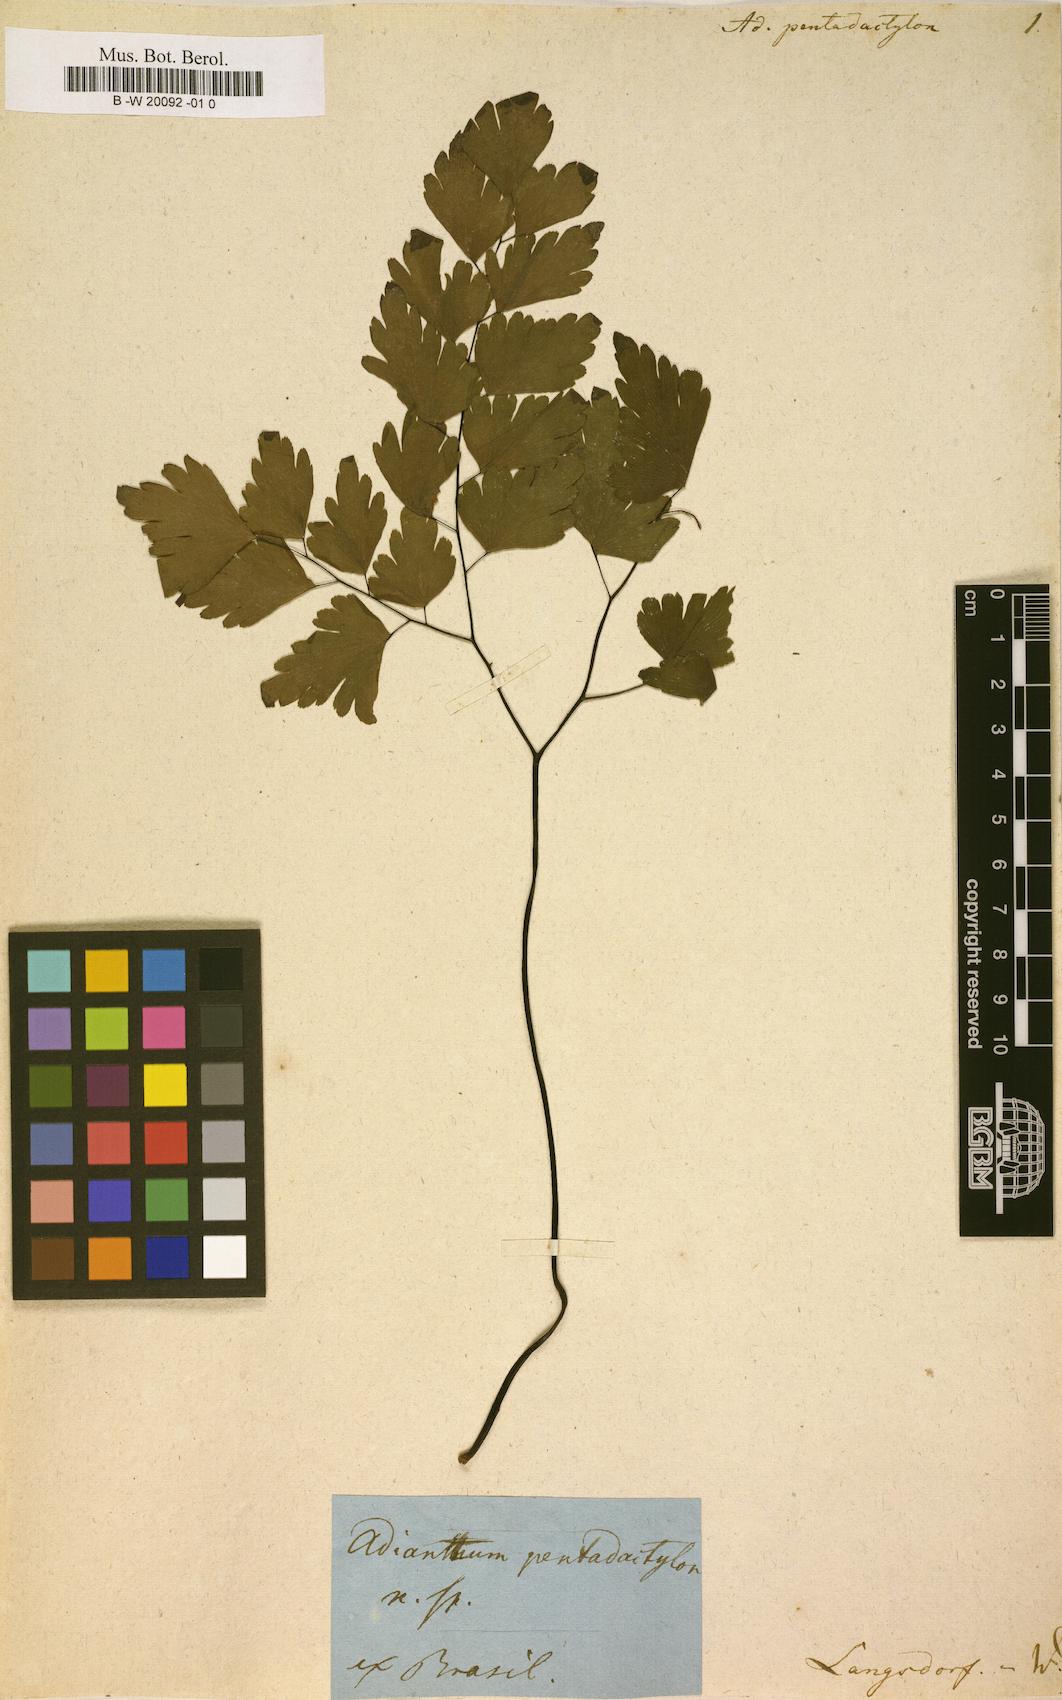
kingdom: Plantae
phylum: Tracheophyta
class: Polypodiopsida
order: Polypodiales
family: Pteridaceae
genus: Adiantum
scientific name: Adiantum pentadactylon
